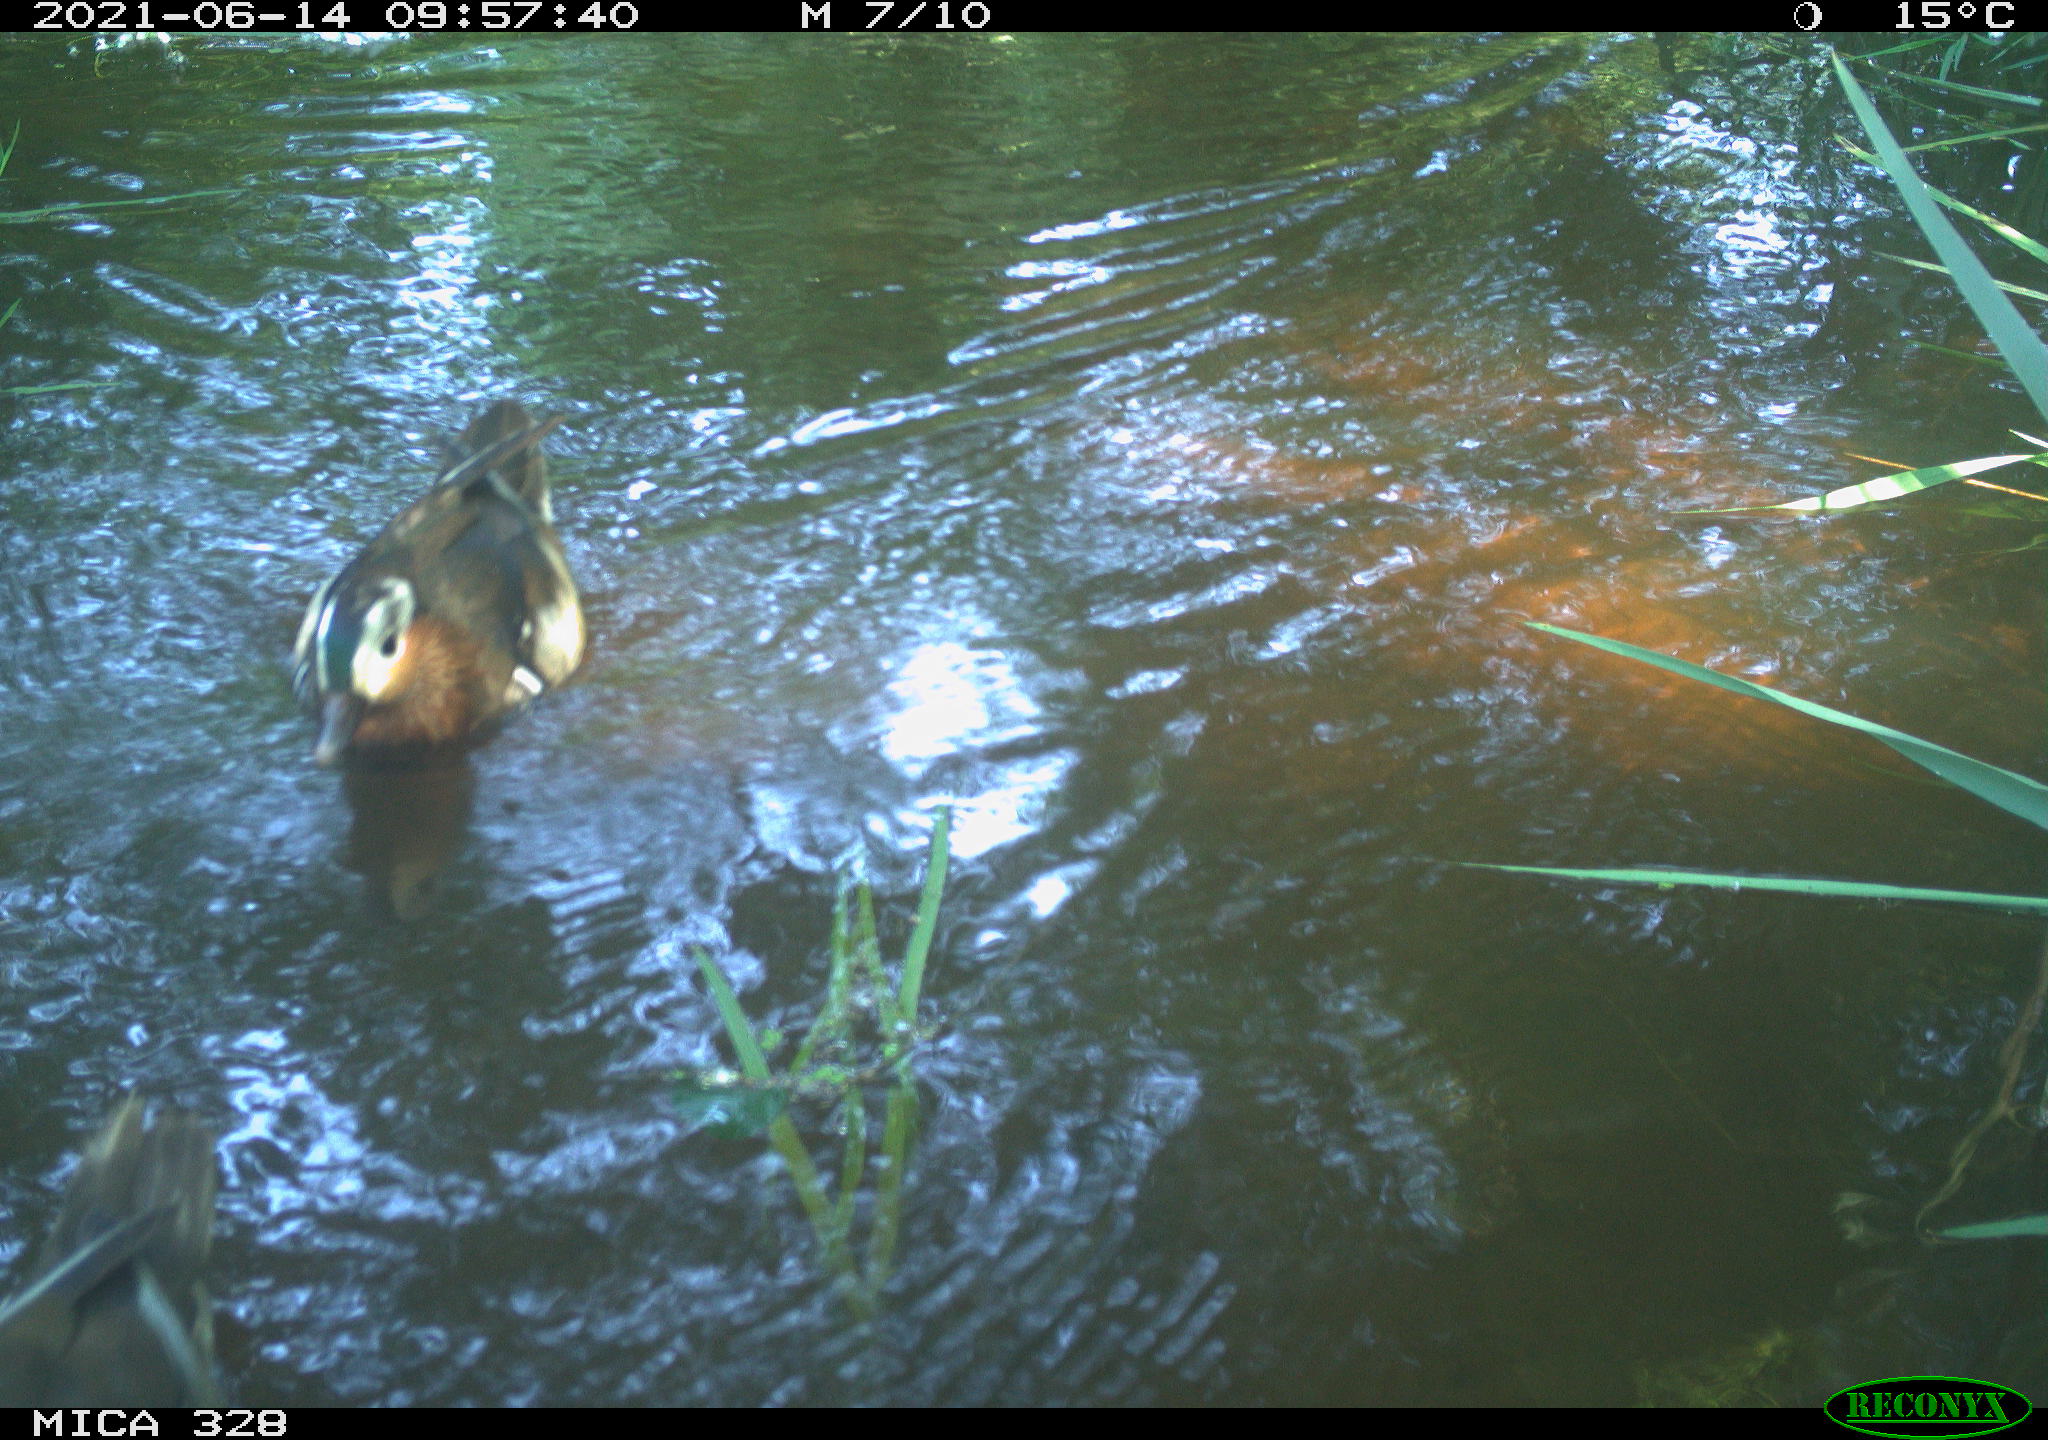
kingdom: Animalia
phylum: Chordata
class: Aves
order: Anseriformes
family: Anatidae
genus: Aix
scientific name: Aix galericulata
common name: Mandarin duck
